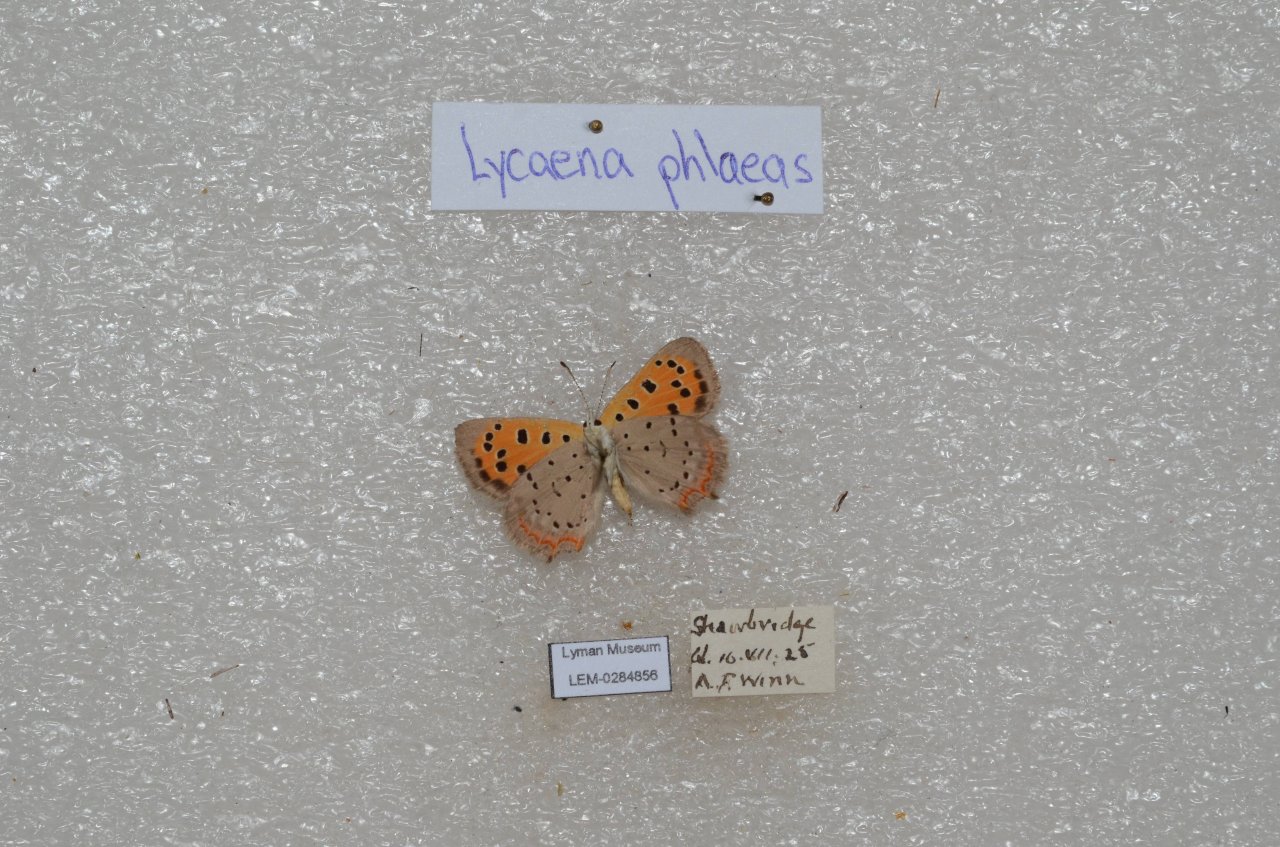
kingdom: Animalia
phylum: Arthropoda
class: Insecta
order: Lepidoptera
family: Lycaenidae
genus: Lycaena
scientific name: Lycaena phlaeas
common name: American Copper
